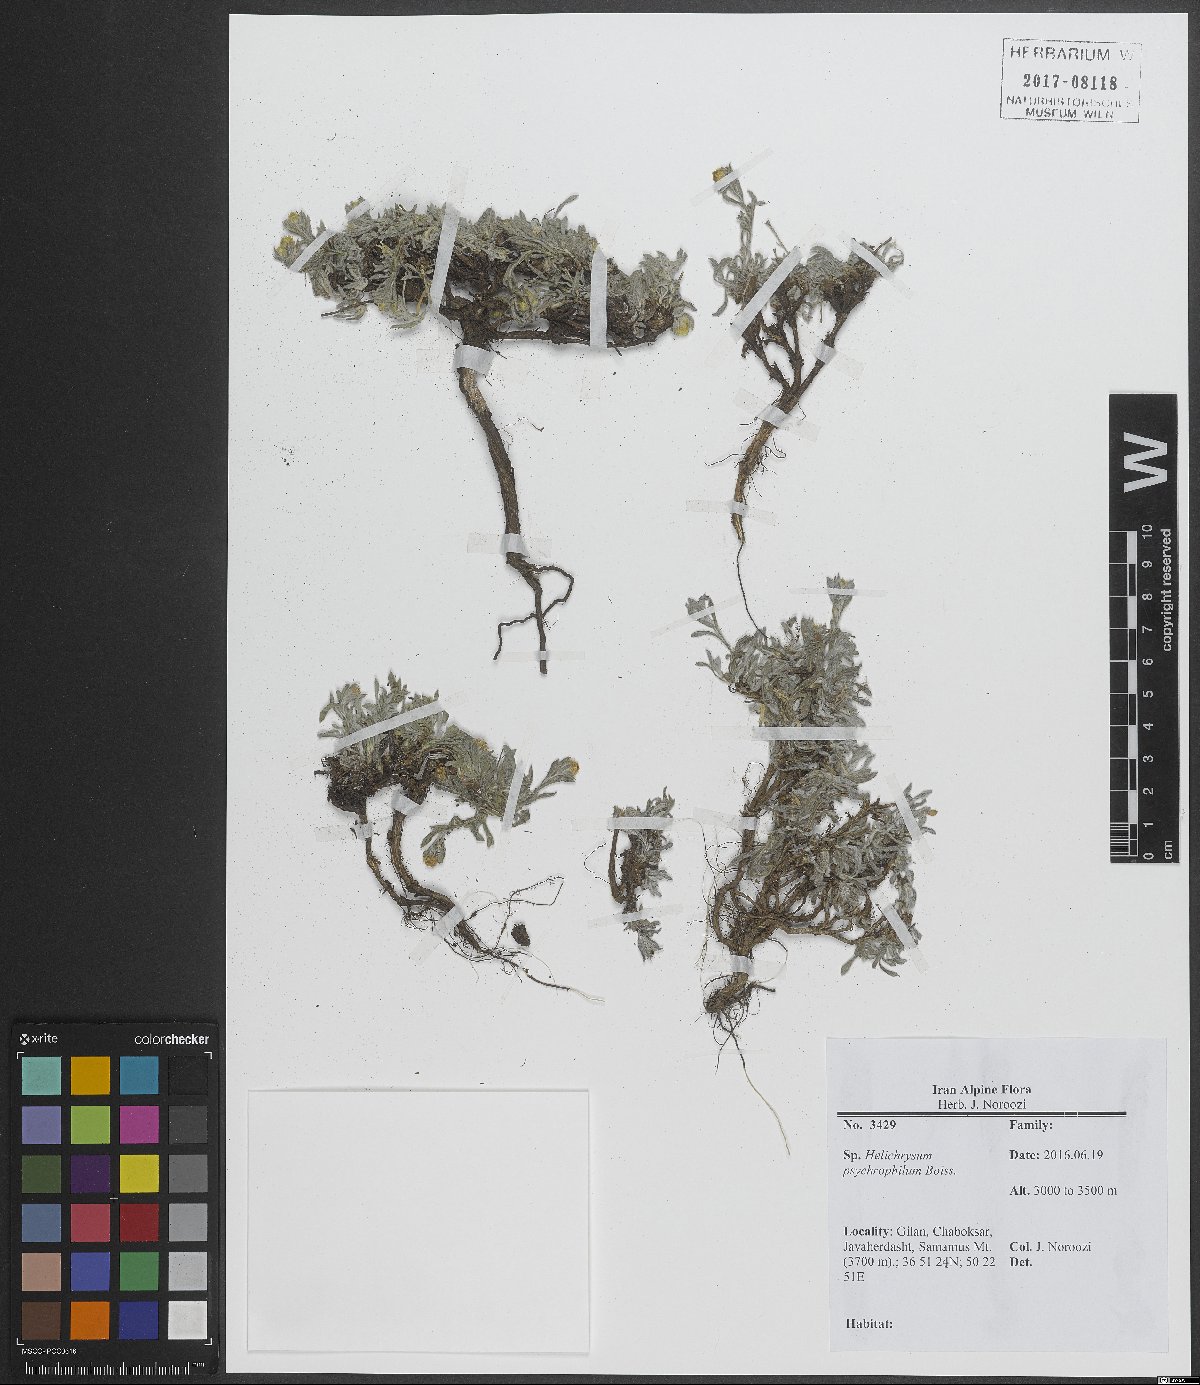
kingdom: Plantae
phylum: Tracheophyta
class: Magnoliopsida
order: Asterales
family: Asteraceae
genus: Helichrysum
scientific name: Helichrysum psychrophilum
